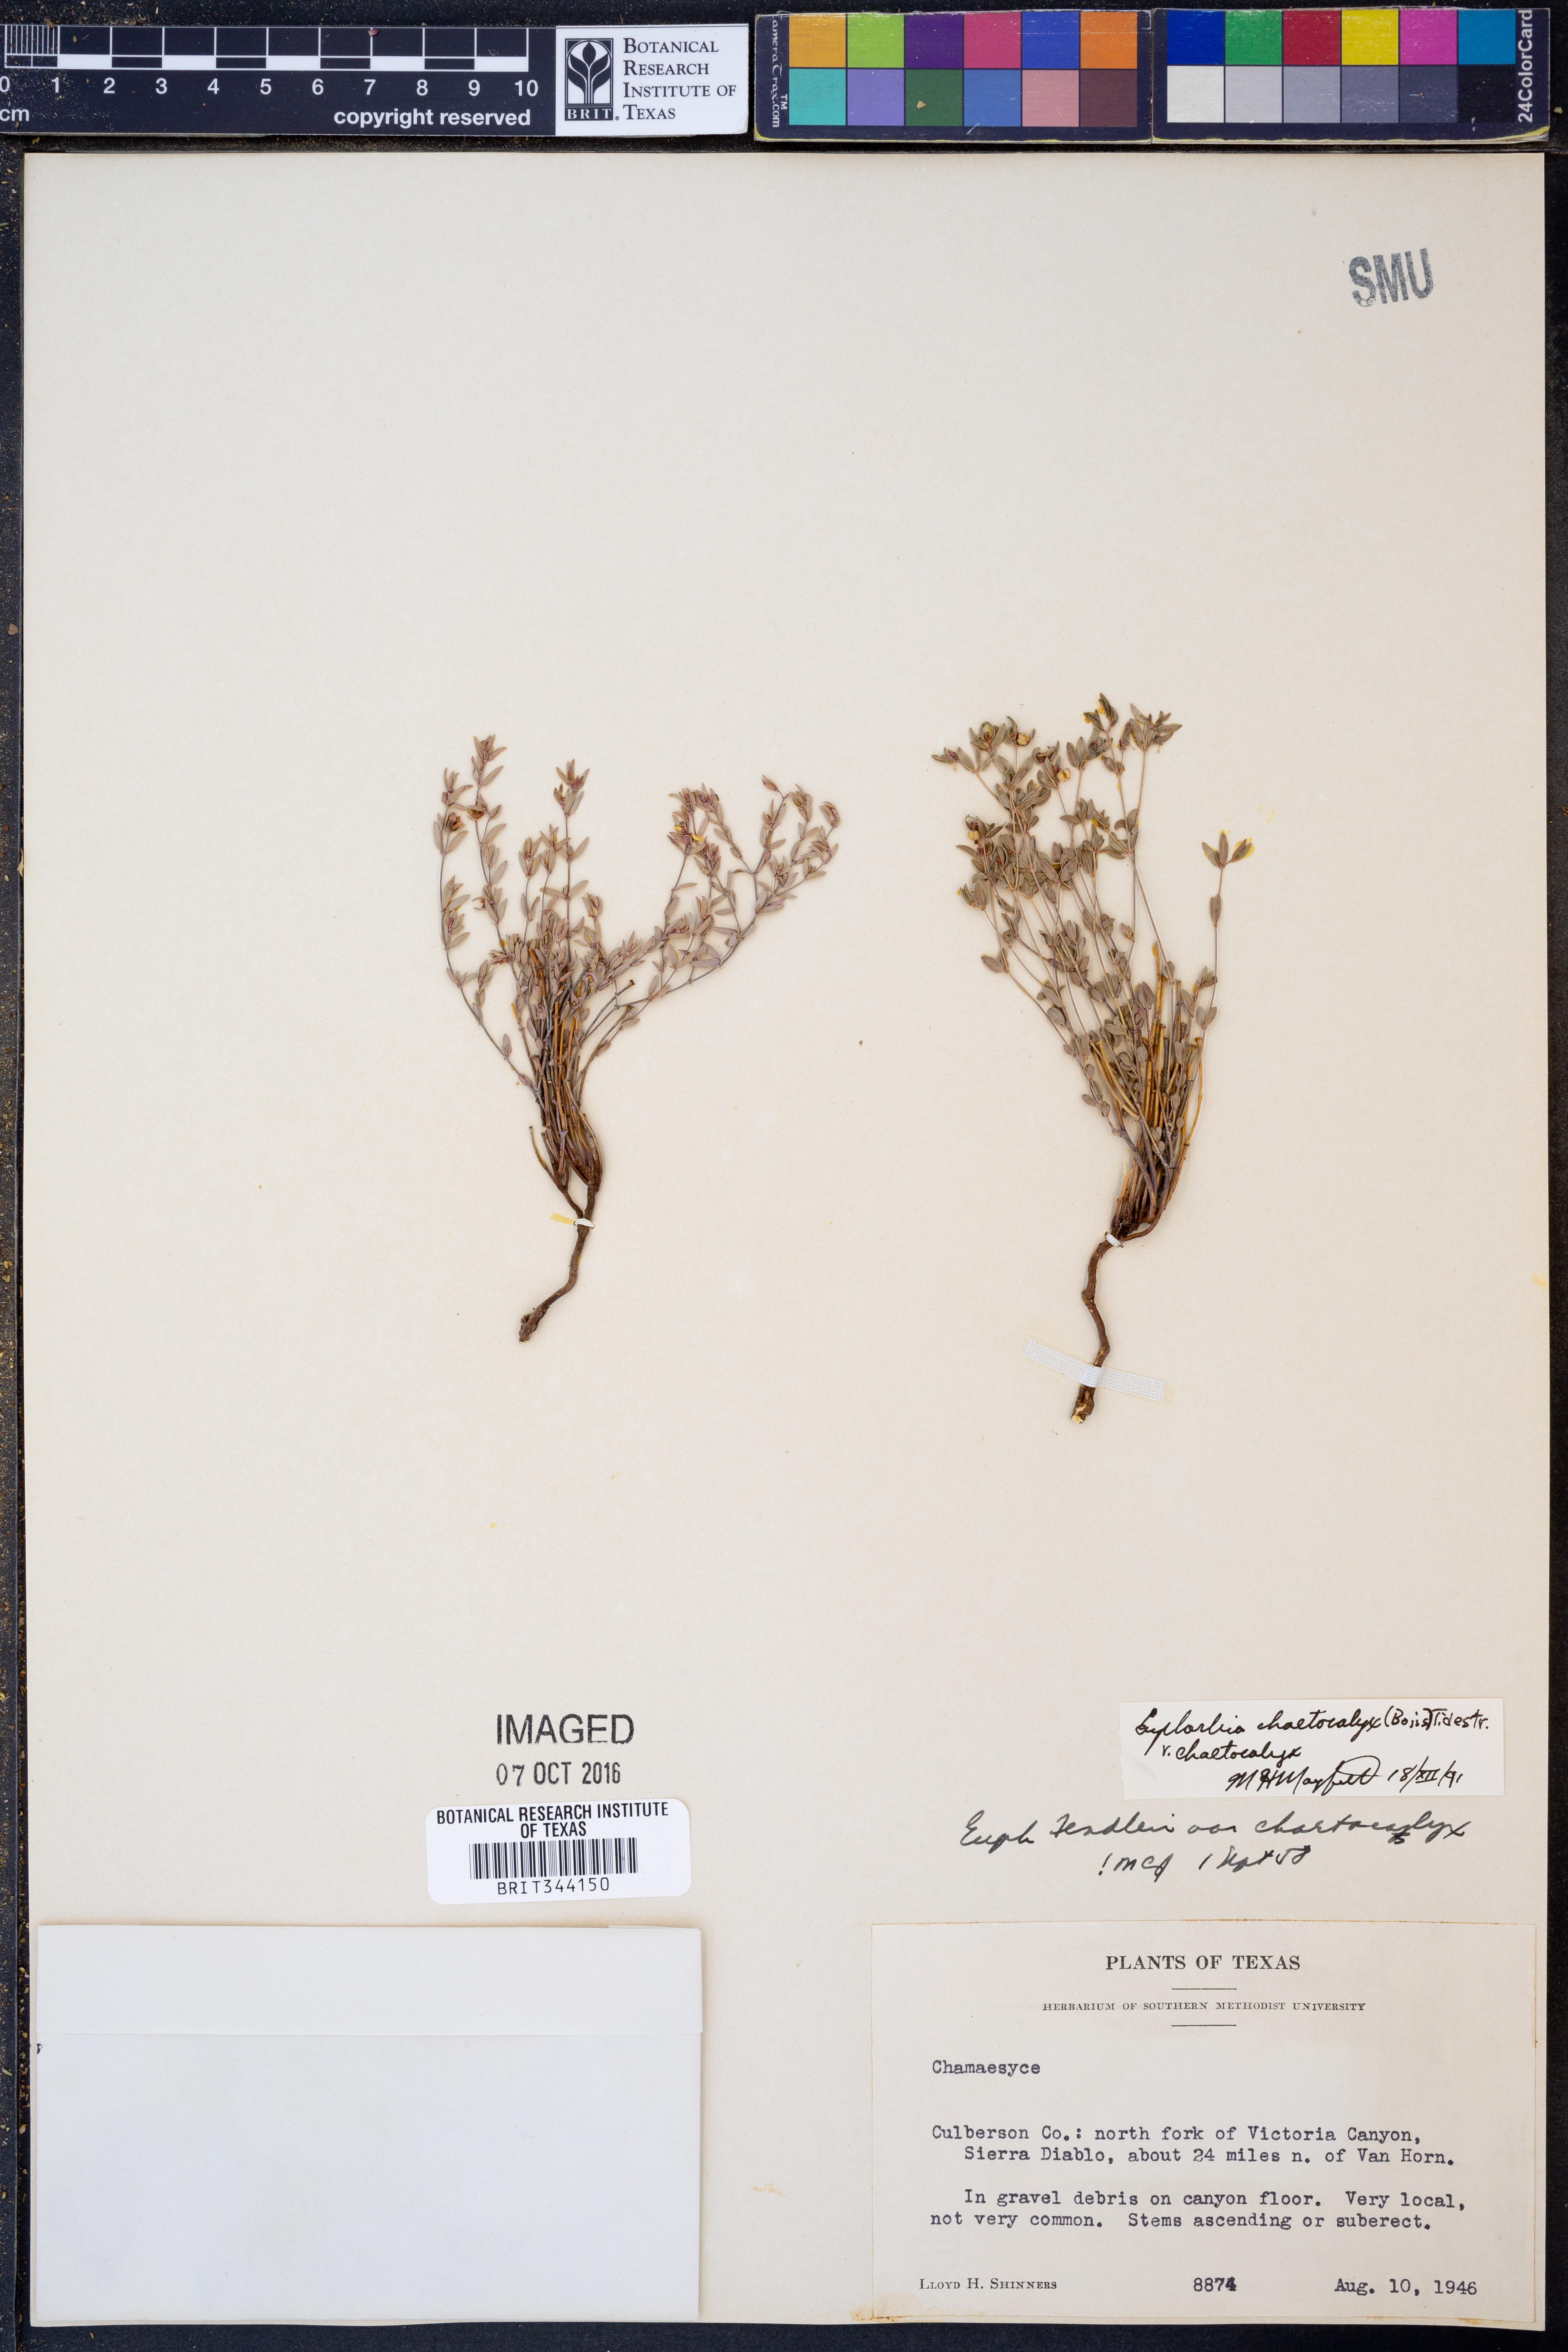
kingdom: Plantae
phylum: Tracheophyta
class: Magnoliopsida
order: Malpighiales
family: Euphorbiaceae
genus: Euphorbia
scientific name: Euphorbia chaetocalyx
